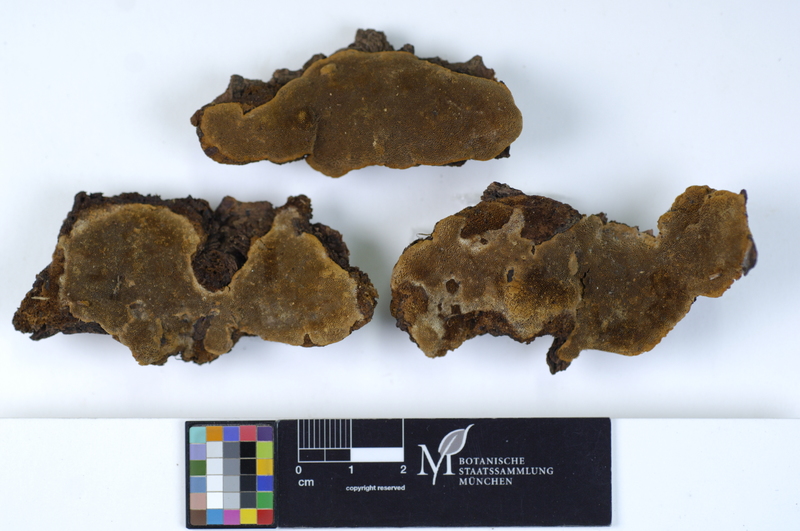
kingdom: Fungi
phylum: Basidiomycota
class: Agaricomycetes
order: Hymenochaetales
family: Hymenochaetaceae
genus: Phellinus
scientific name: Phellinus viticola
